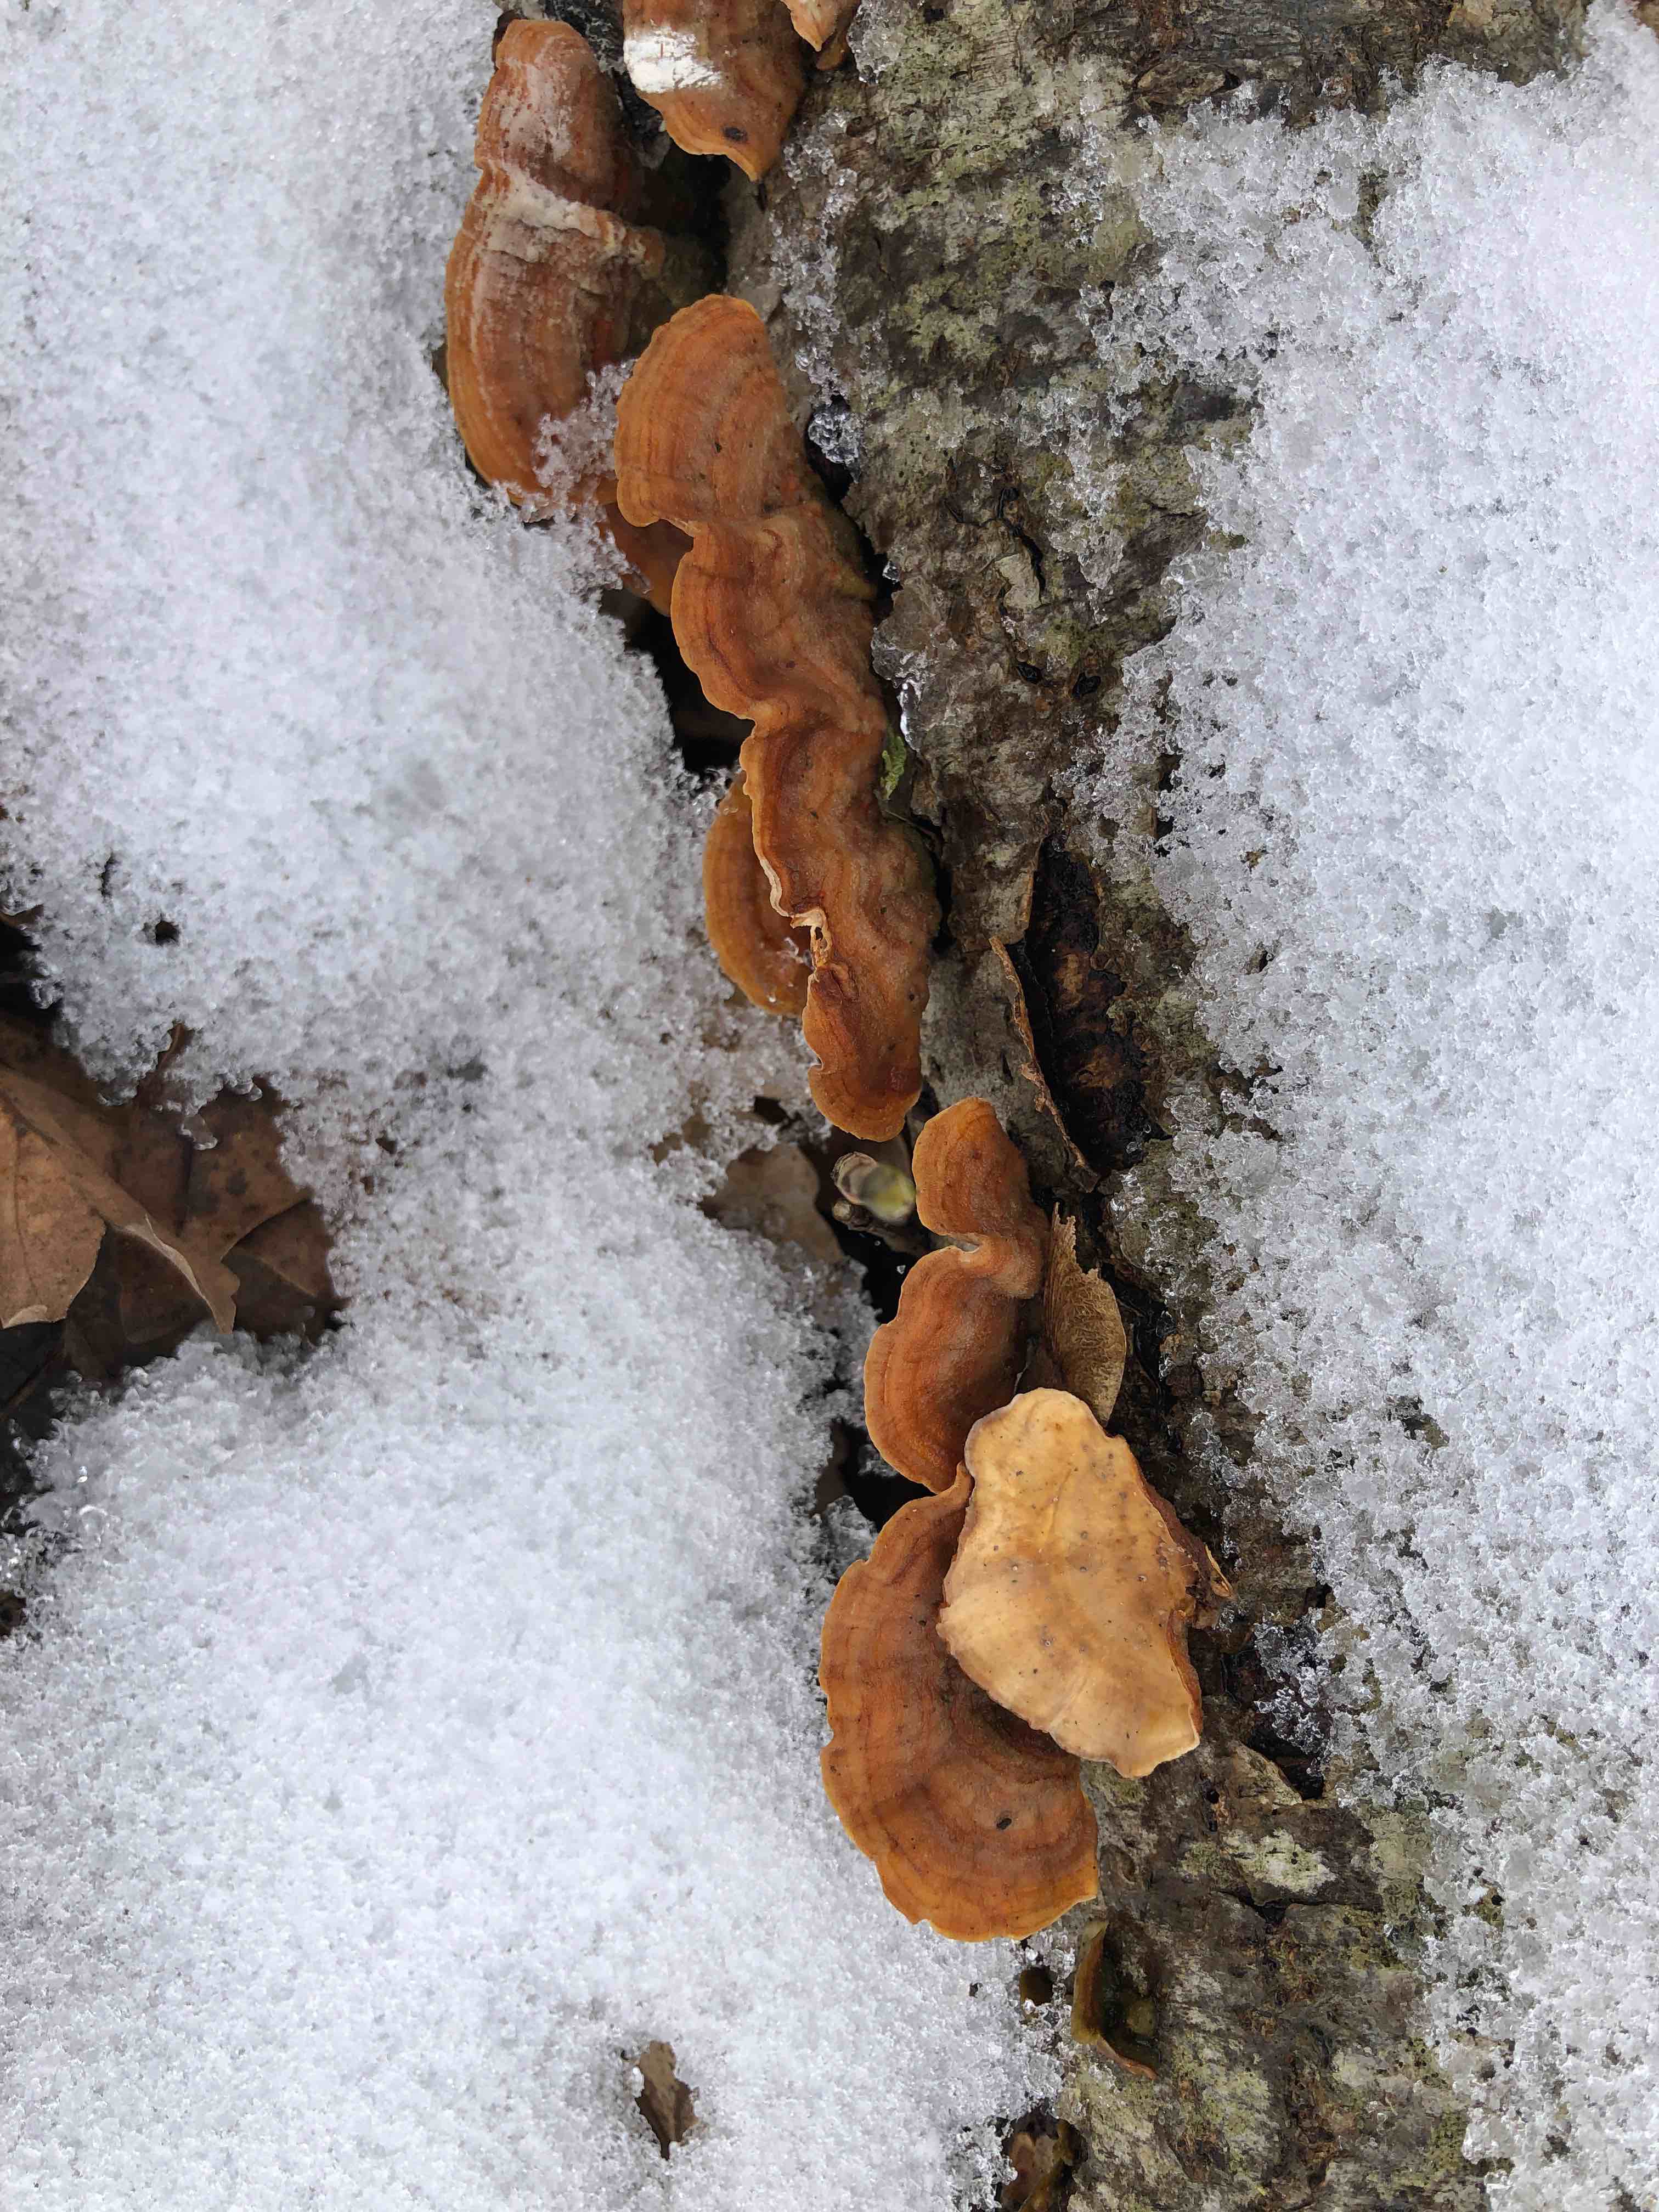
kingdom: Fungi
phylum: Basidiomycota
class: Agaricomycetes
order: Russulales
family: Stereaceae
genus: Stereum
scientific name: Stereum subtomentosum
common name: smuk lædersvamp
